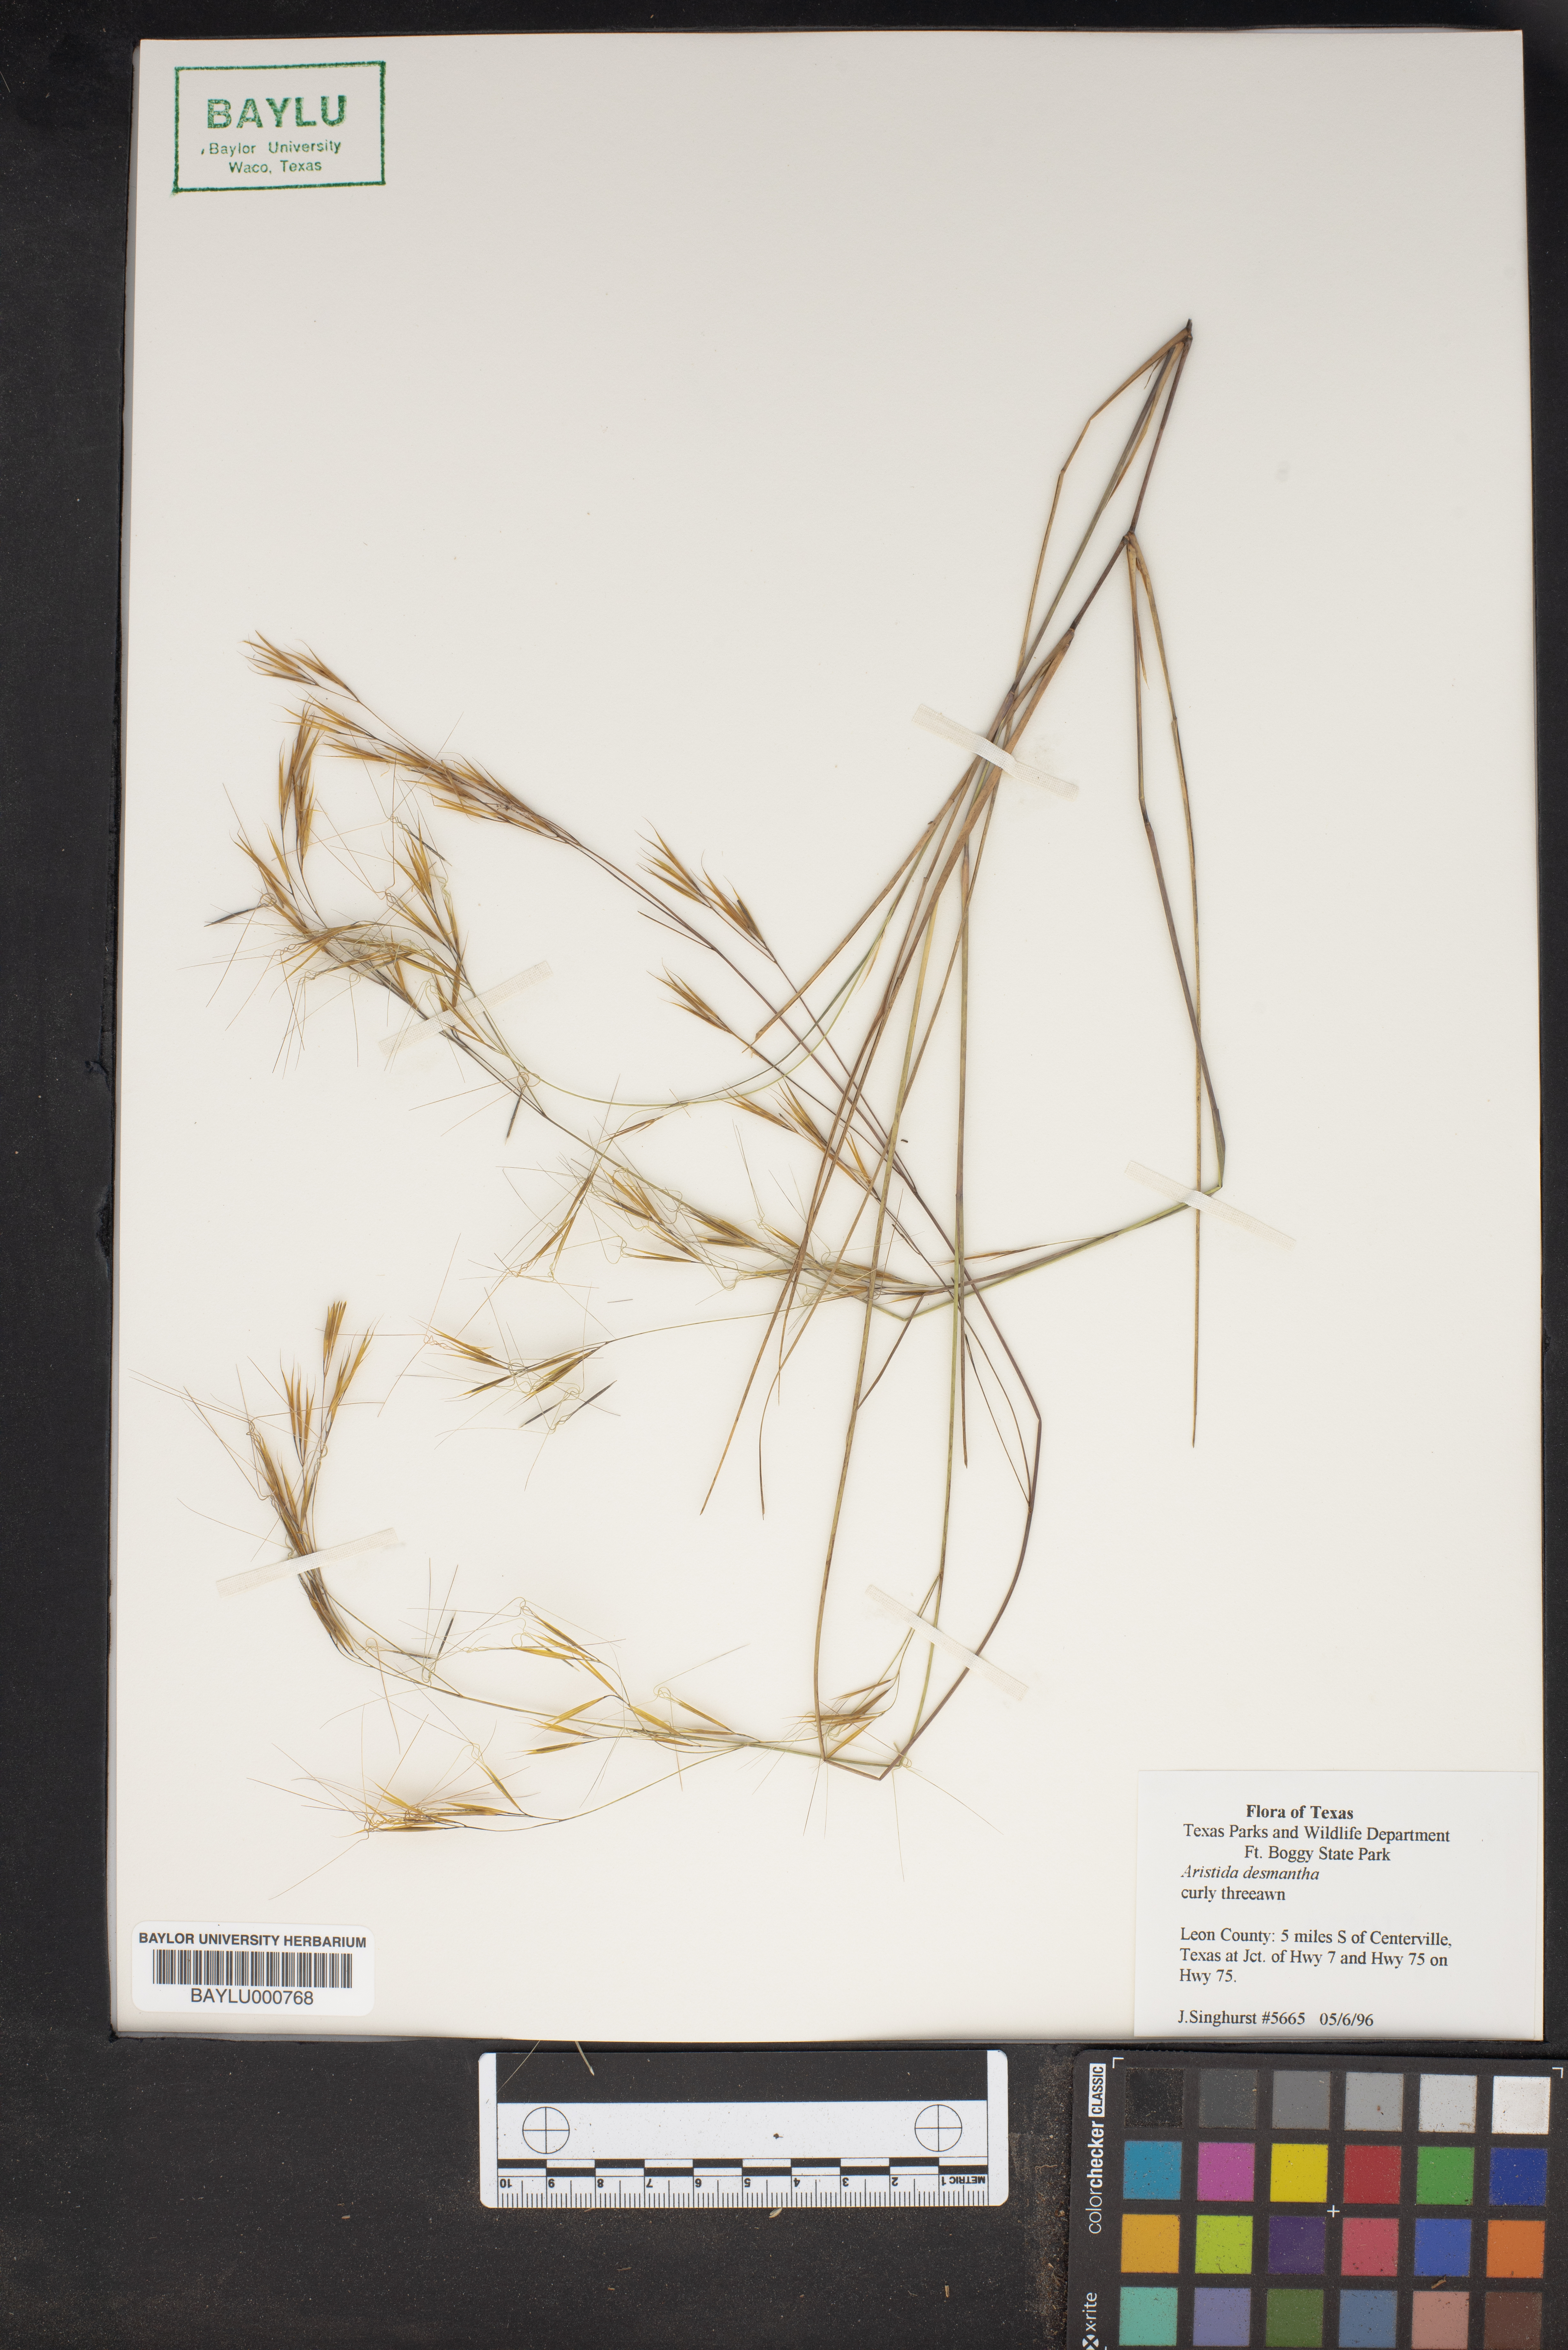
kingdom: Plantae
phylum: Tracheophyta
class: Liliopsida
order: Poales
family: Poaceae
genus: Aristida
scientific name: Aristida desmantha
